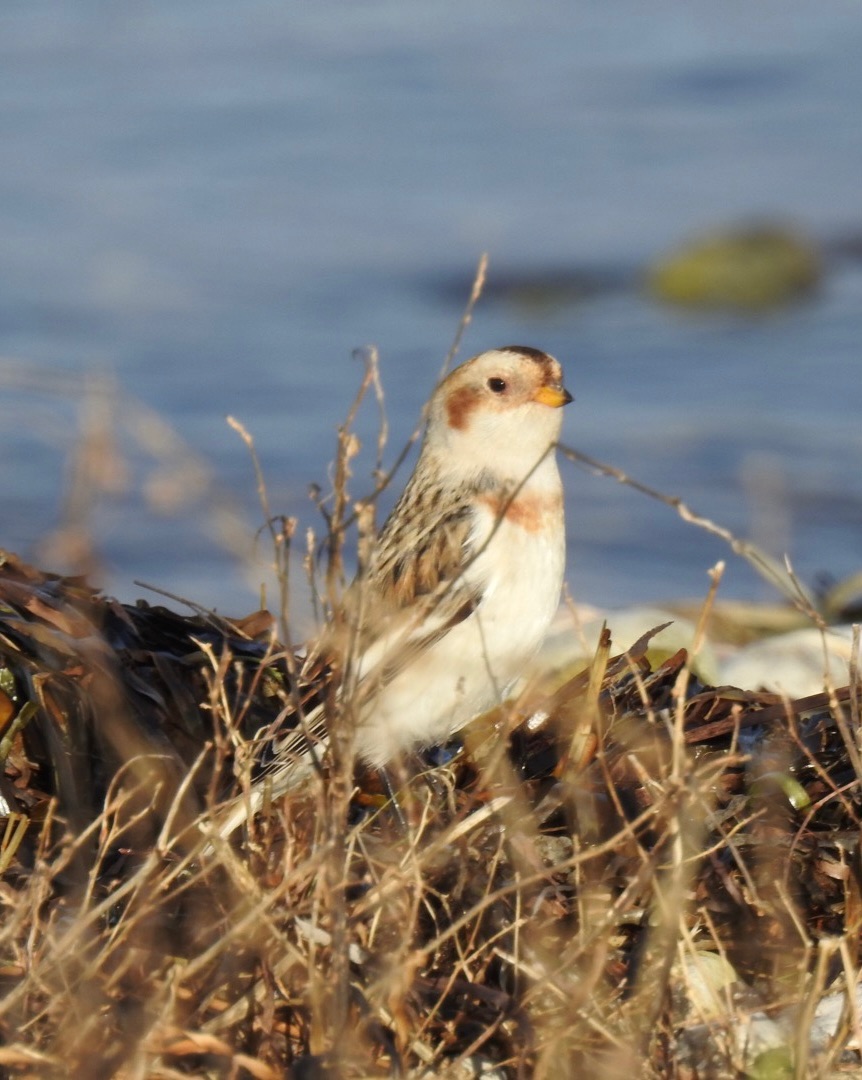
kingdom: Animalia
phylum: Chordata
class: Aves
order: Passeriformes
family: Calcariidae
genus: Plectrophenax
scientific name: Plectrophenax nivalis
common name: Snespurv
